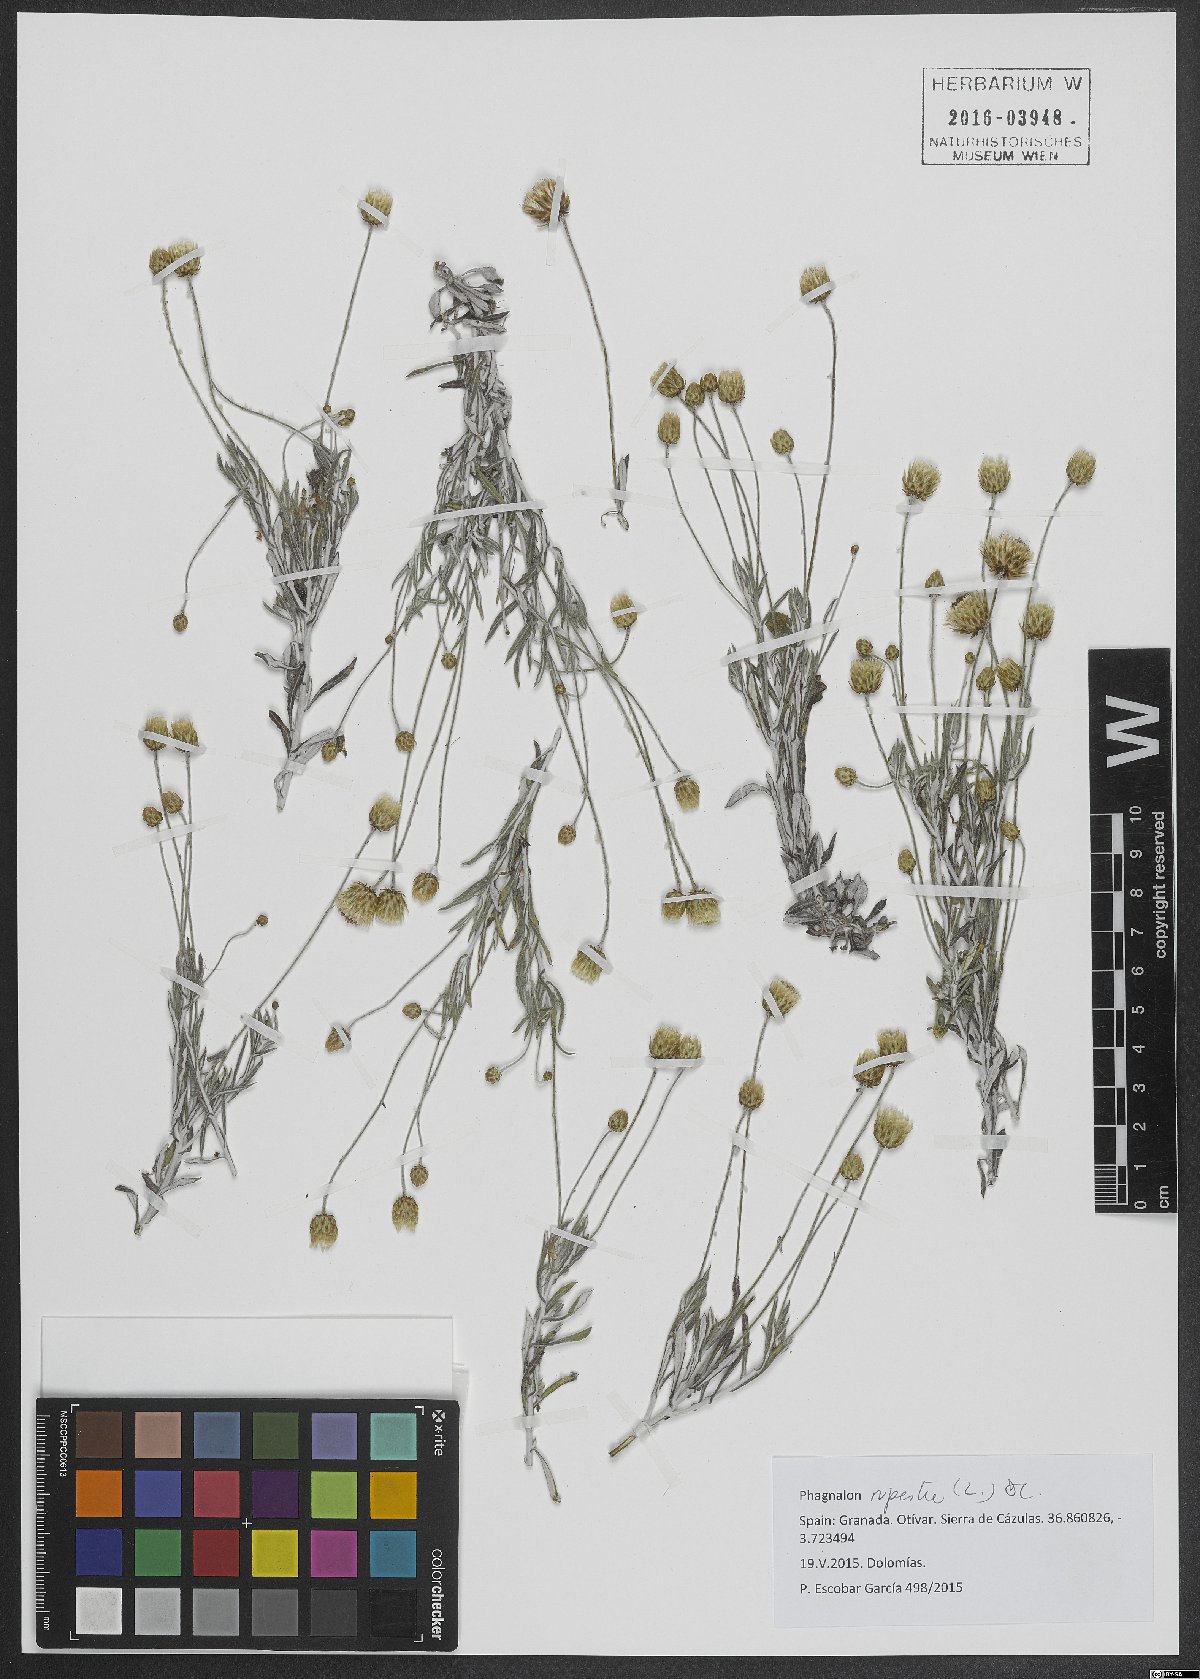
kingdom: Plantae
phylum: Tracheophyta
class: Magnoliopsida
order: Asterales
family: Asteraceae
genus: Phagnalon
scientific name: Phagnalon rupestre
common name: Rock phagnalon
